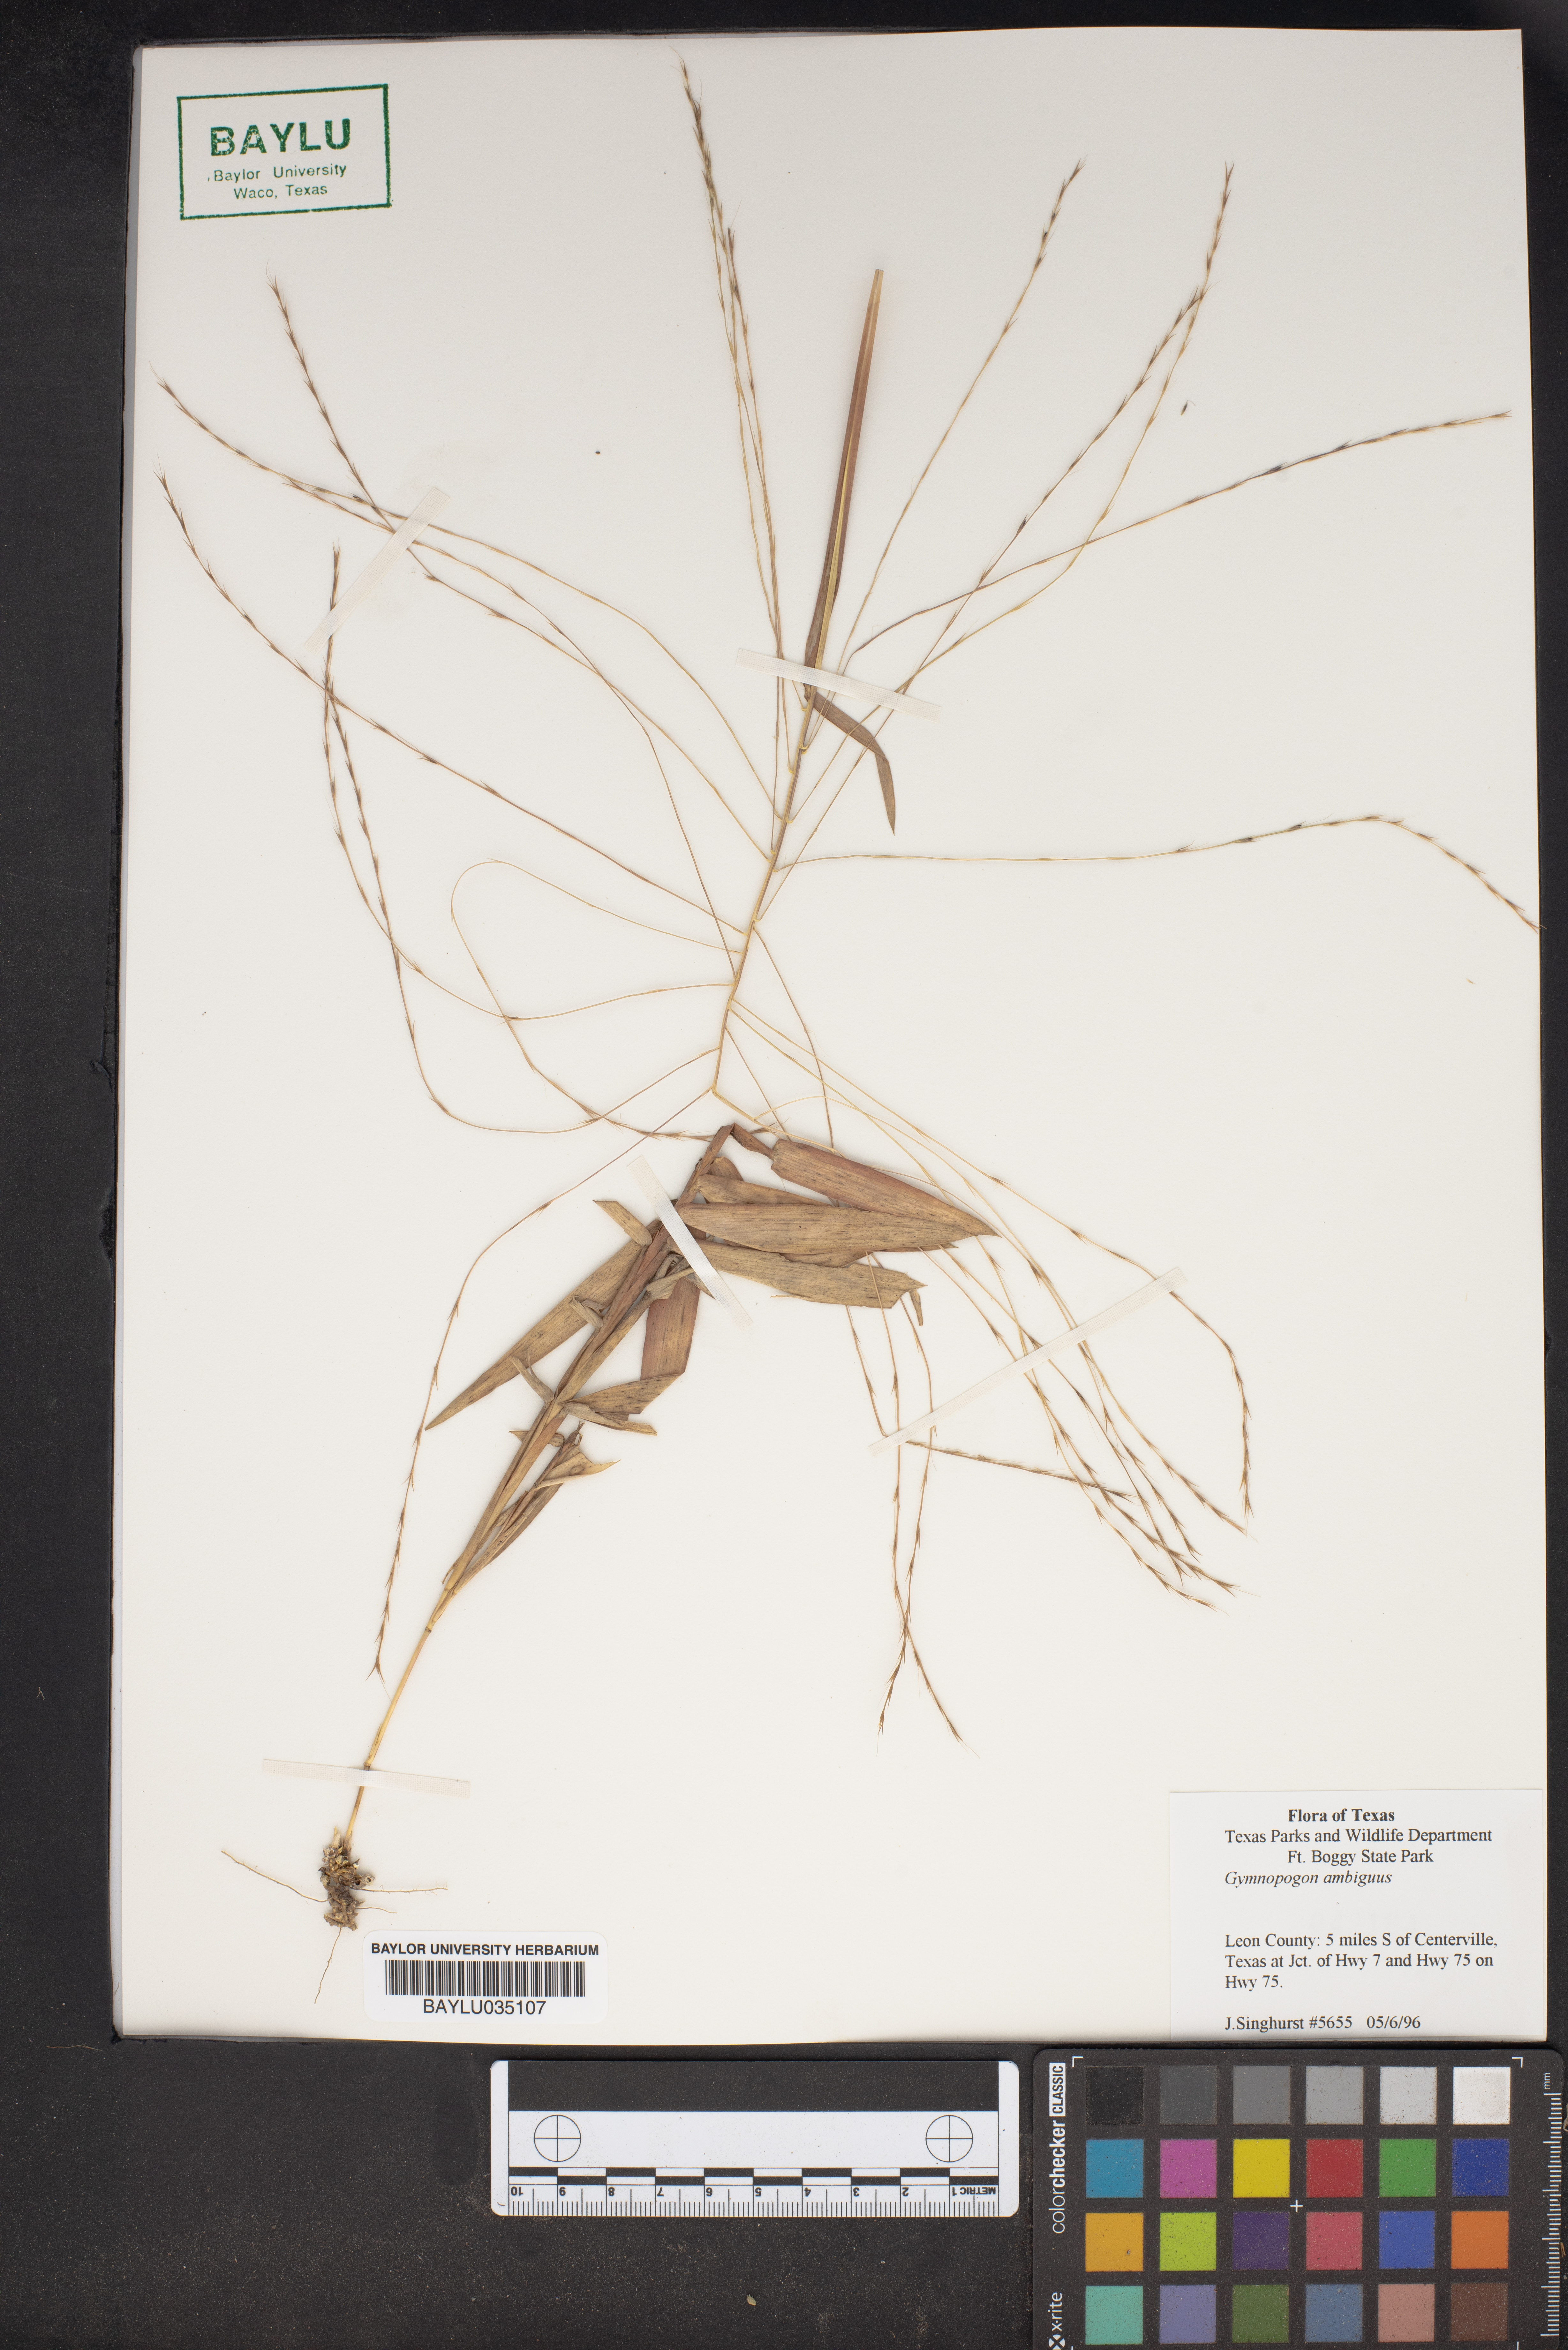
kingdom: Plantae
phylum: Tracheophyta
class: Liliopsida
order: Poales
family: Poaceae
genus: Gymnopogon
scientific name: Gymnopogon ambiguus
